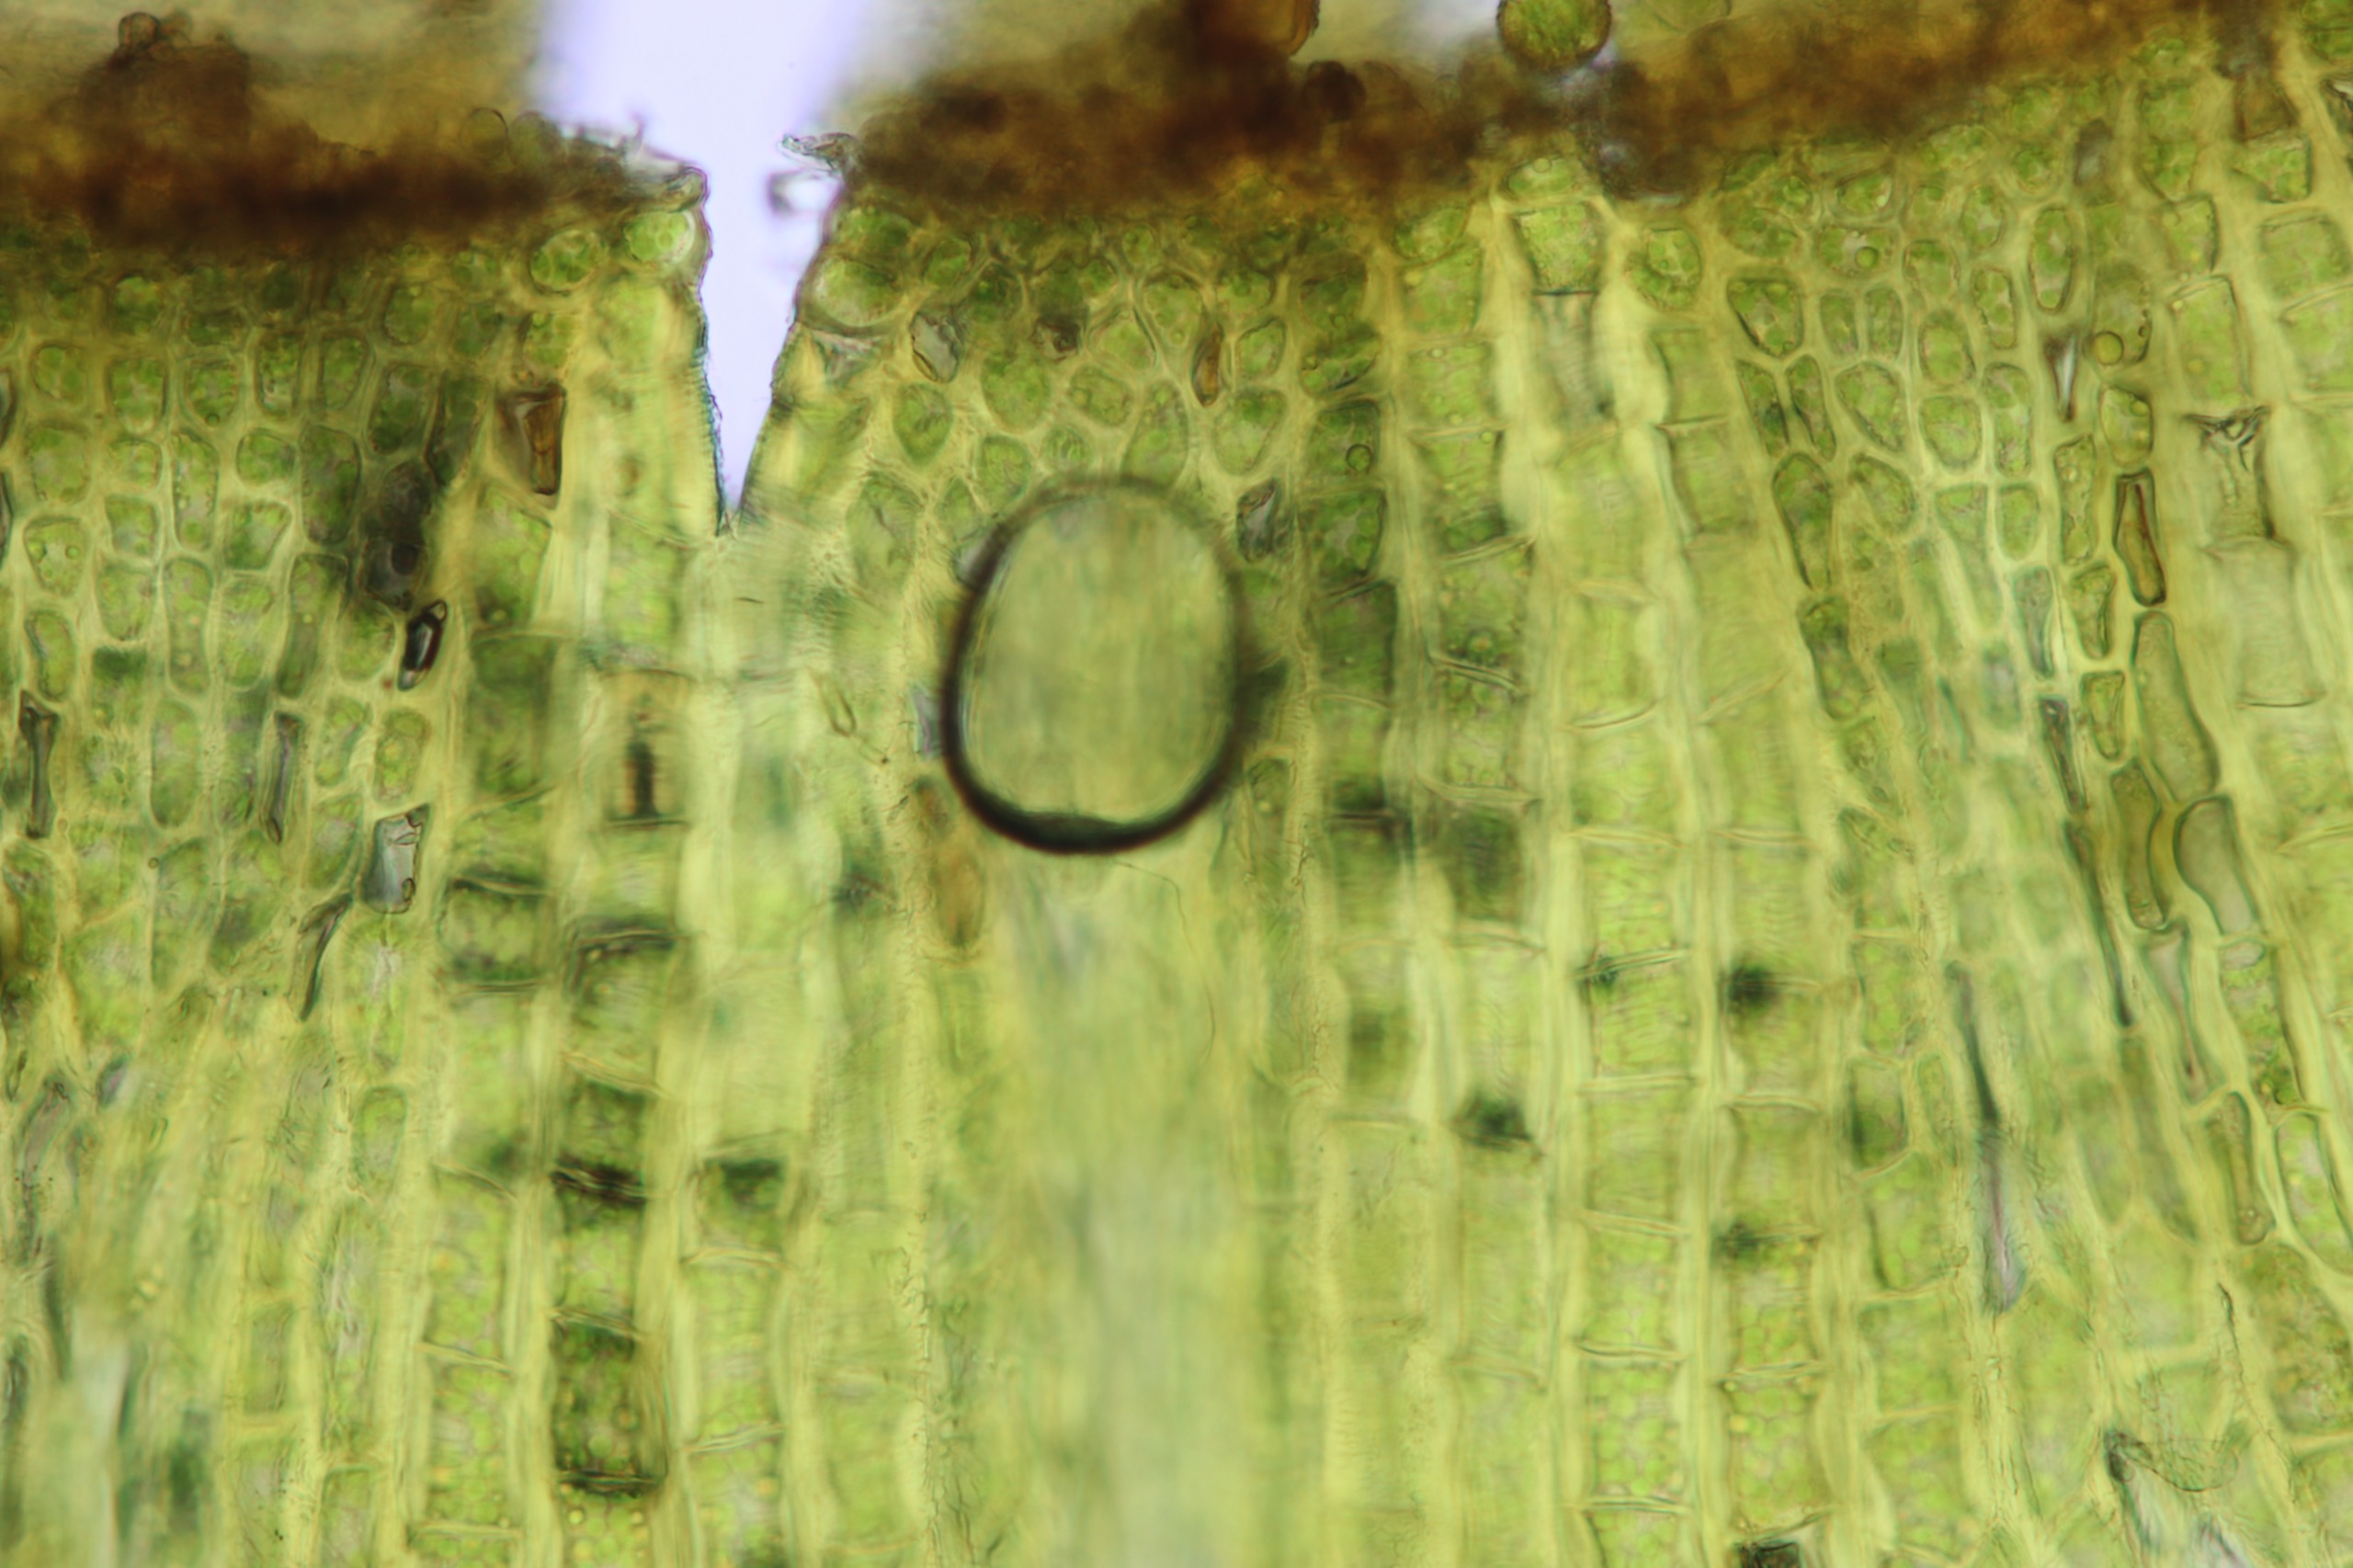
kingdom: Plantae
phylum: Bryophyta
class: Bryopsida
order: Orthotrichales
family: Orthotrichaceae
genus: Ulota
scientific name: Ulota crispa
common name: Kruset låddenhætte
